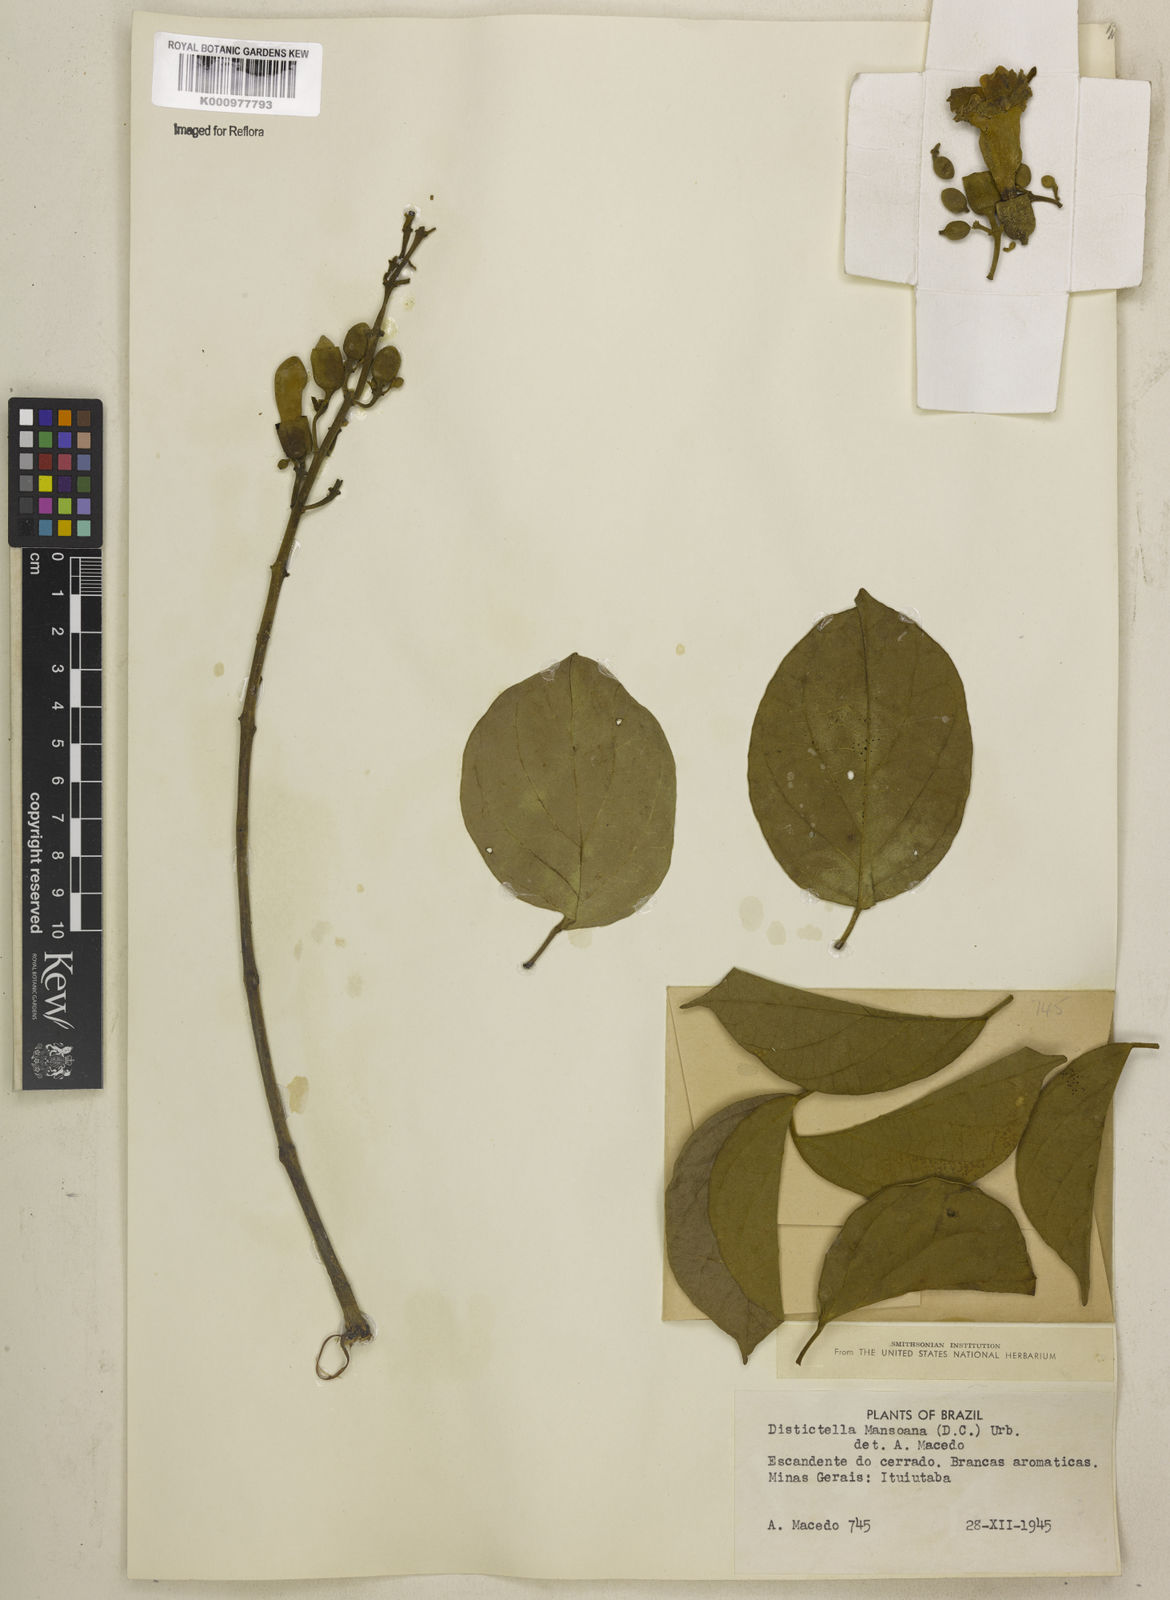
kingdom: Plantae
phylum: Tracheophyta
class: Magnoliopsida
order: Lamiales
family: Bignoniaceae
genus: Amphilophium
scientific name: Amphilophium mansoanum
